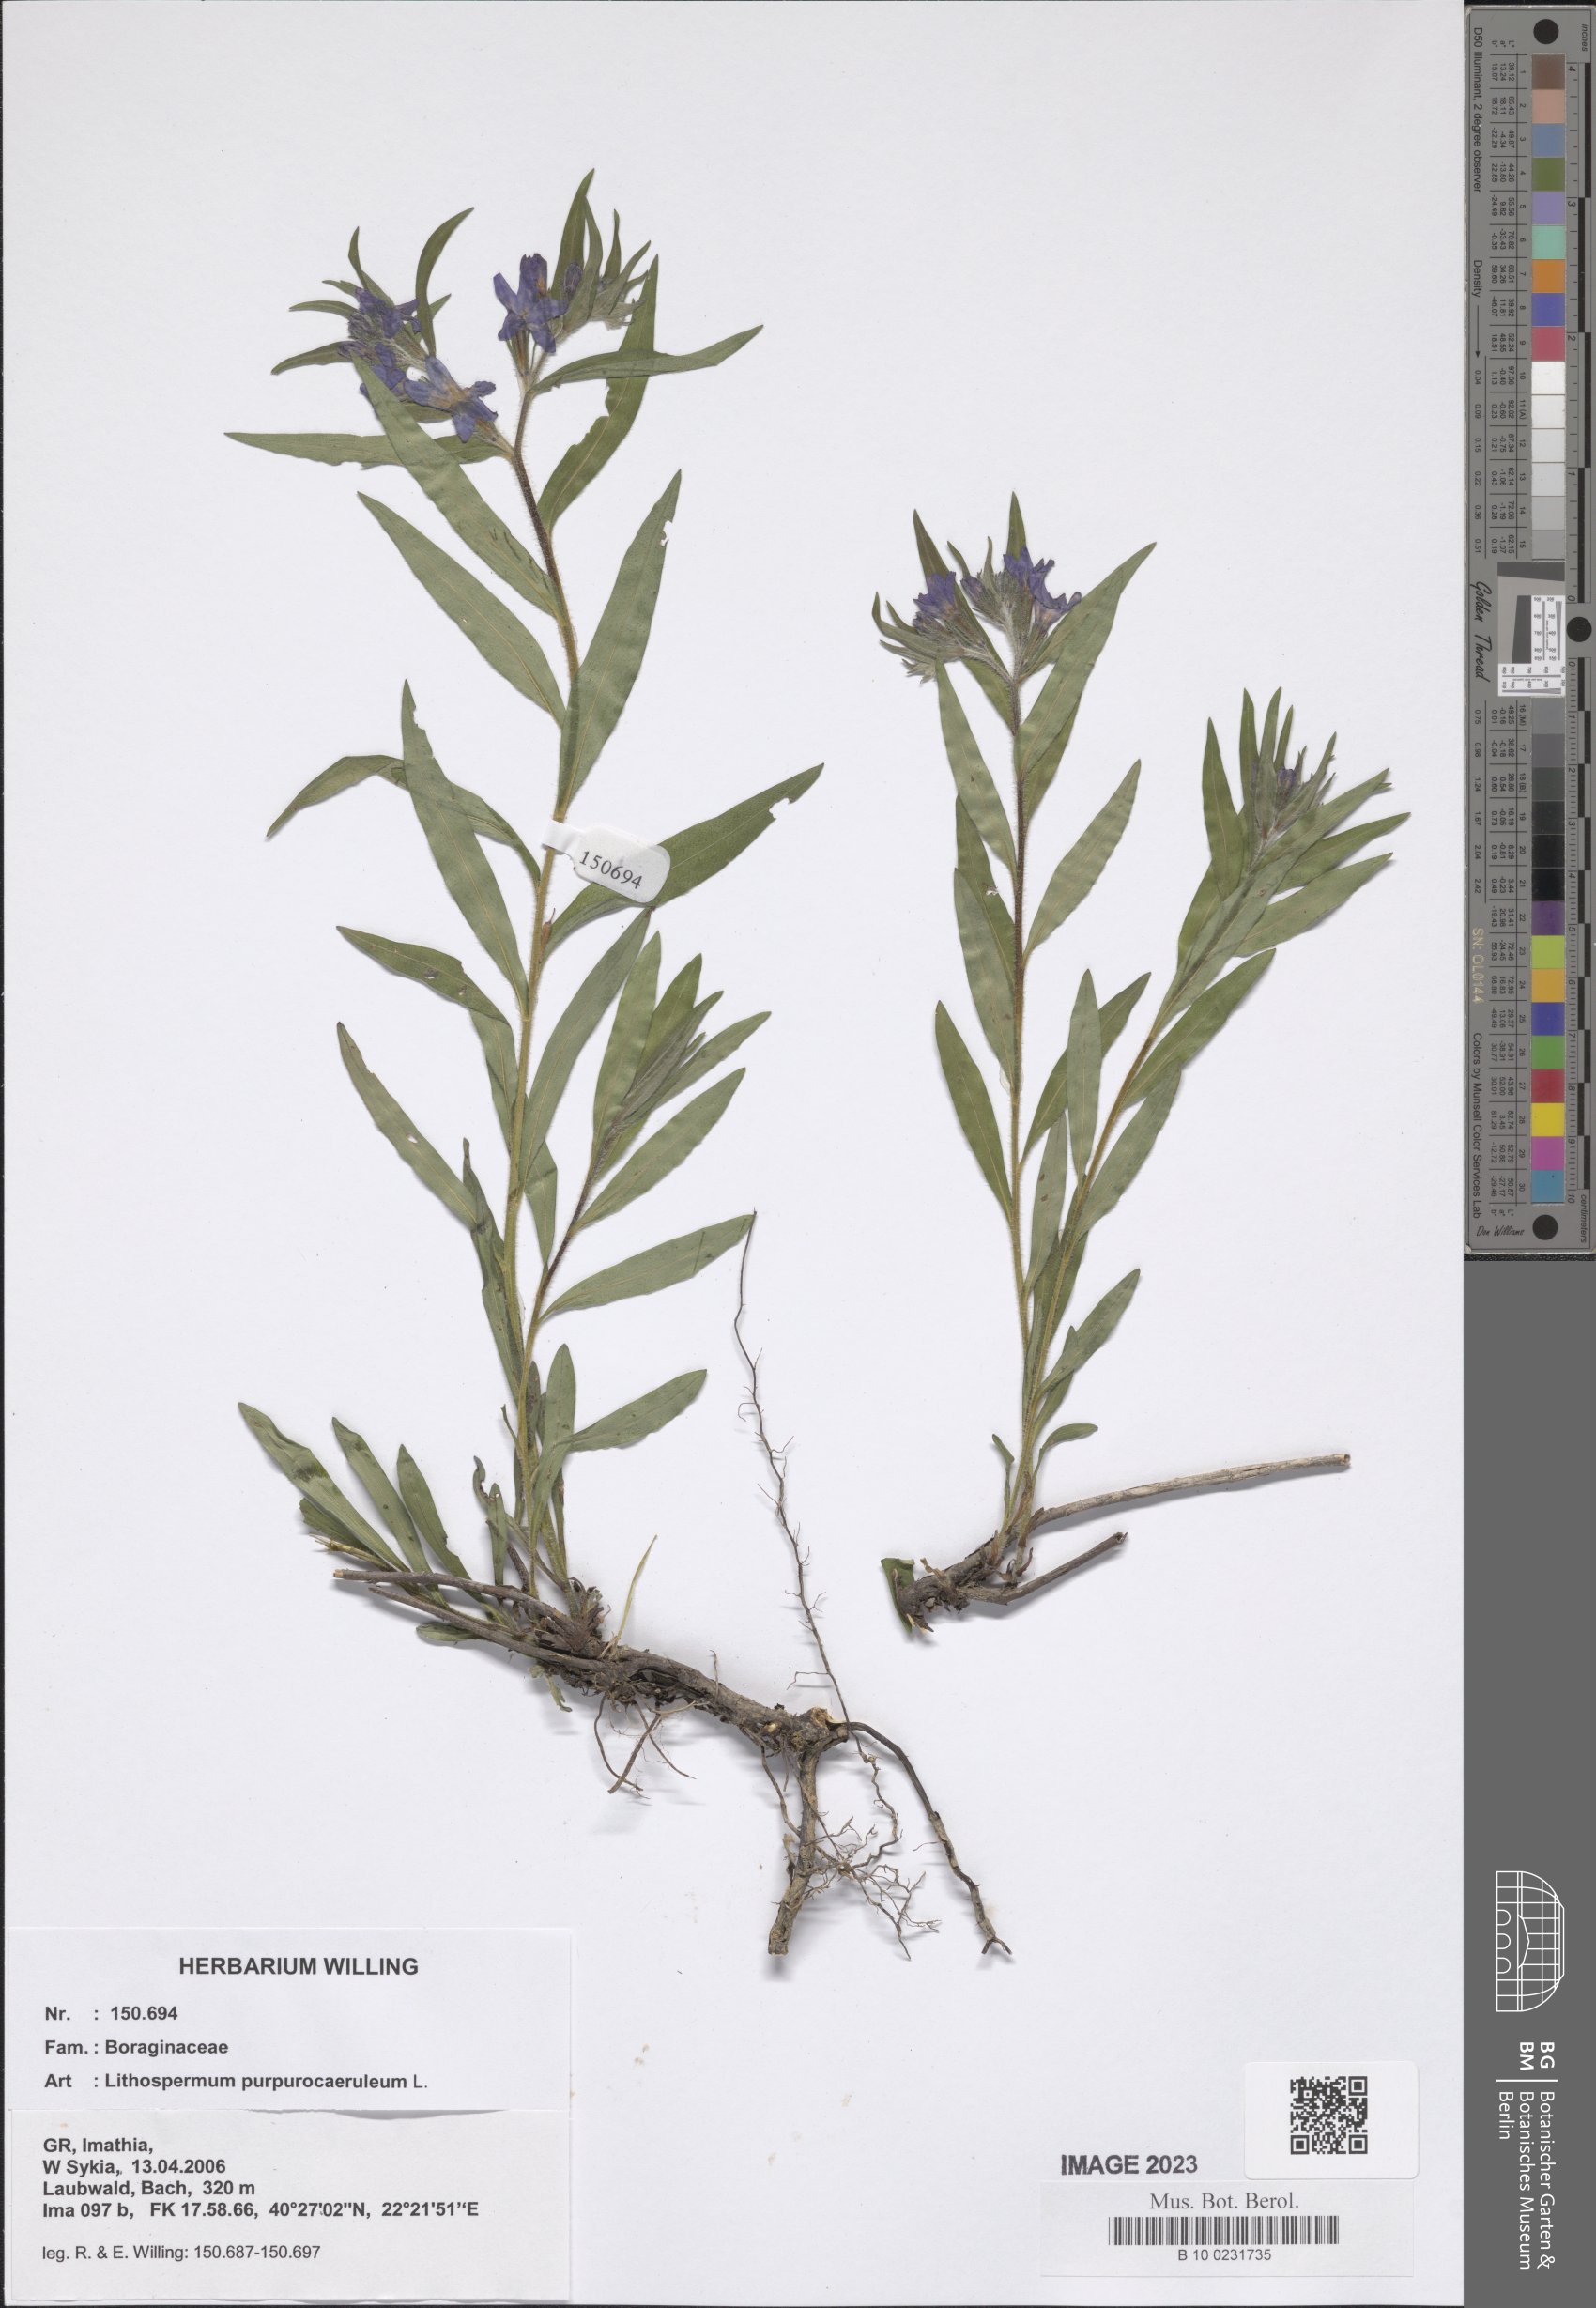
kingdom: Plantae
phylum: Tracheophyta
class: Magnoliopsida
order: Boraginales
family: Boraginaceae
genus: Aegonychon
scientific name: Aegonychon purpurocaeruleum
